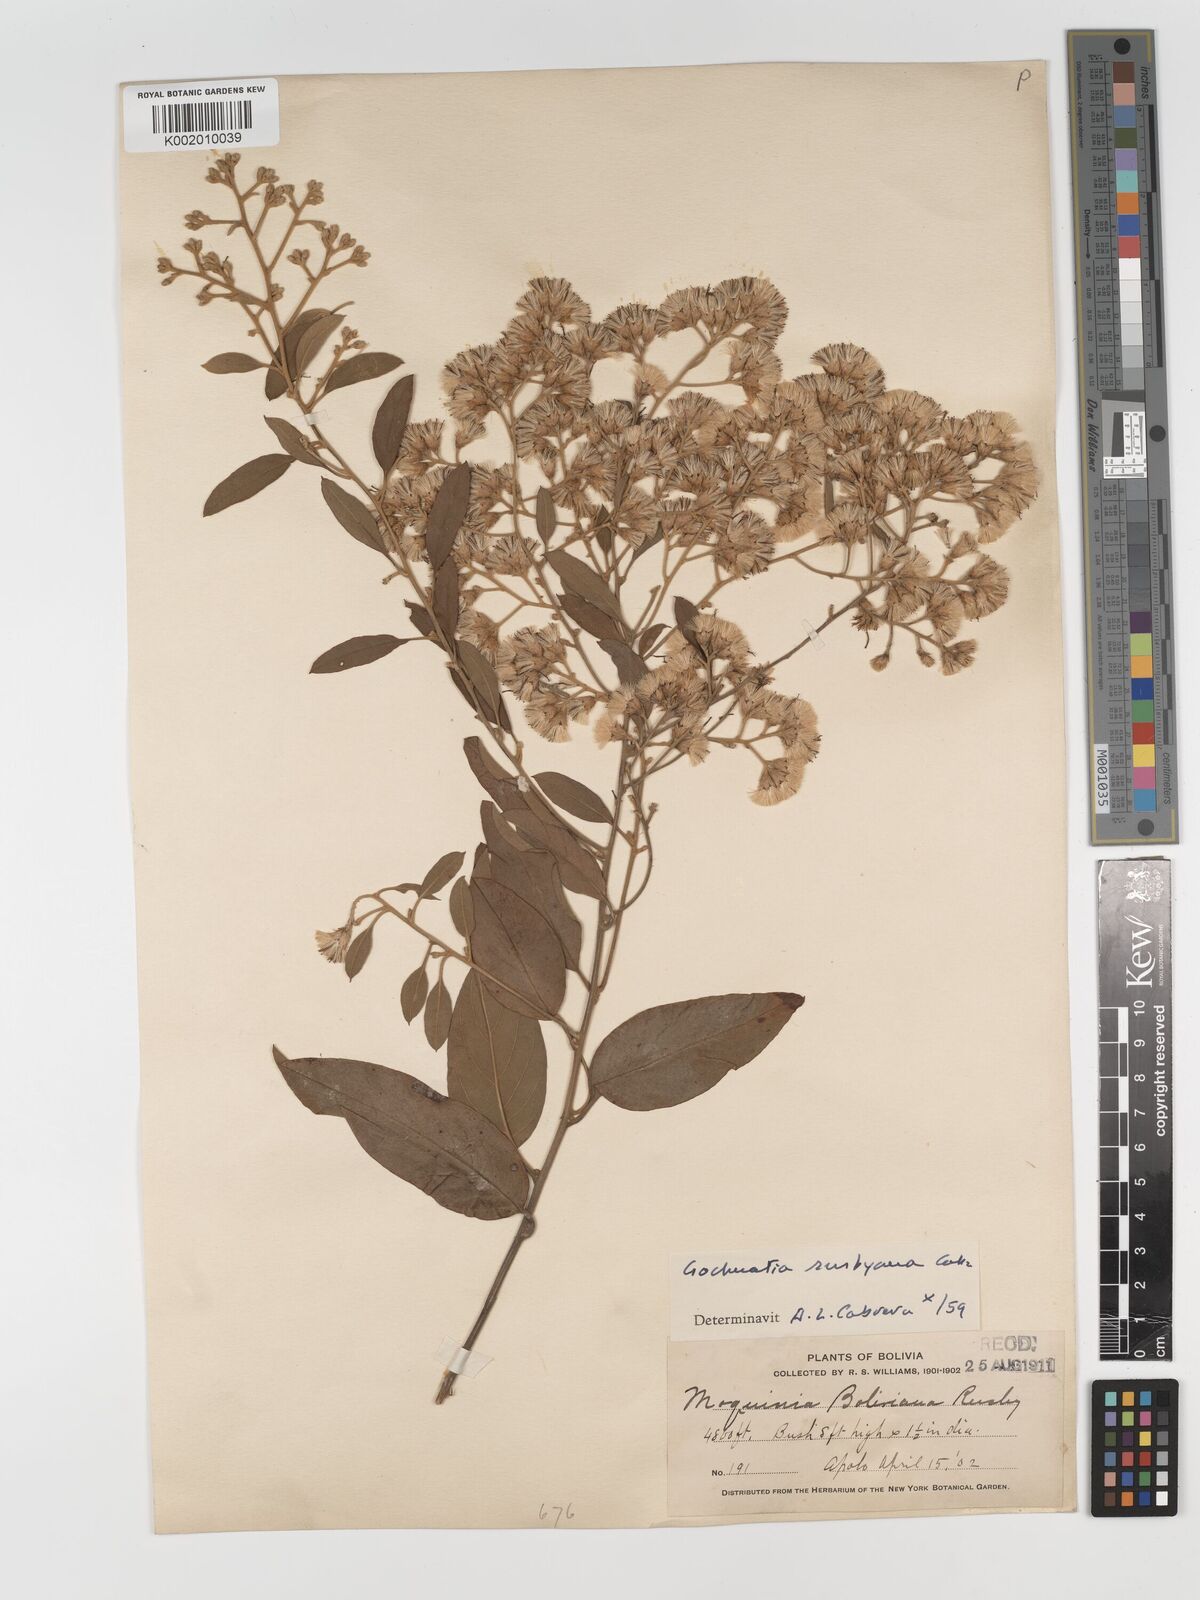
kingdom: Plantae
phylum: Tracheophyta
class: Magnoliopsida
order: Asterales
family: Asteraceae
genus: Moquiniastrum
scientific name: Moquiniastrum bolivianum
